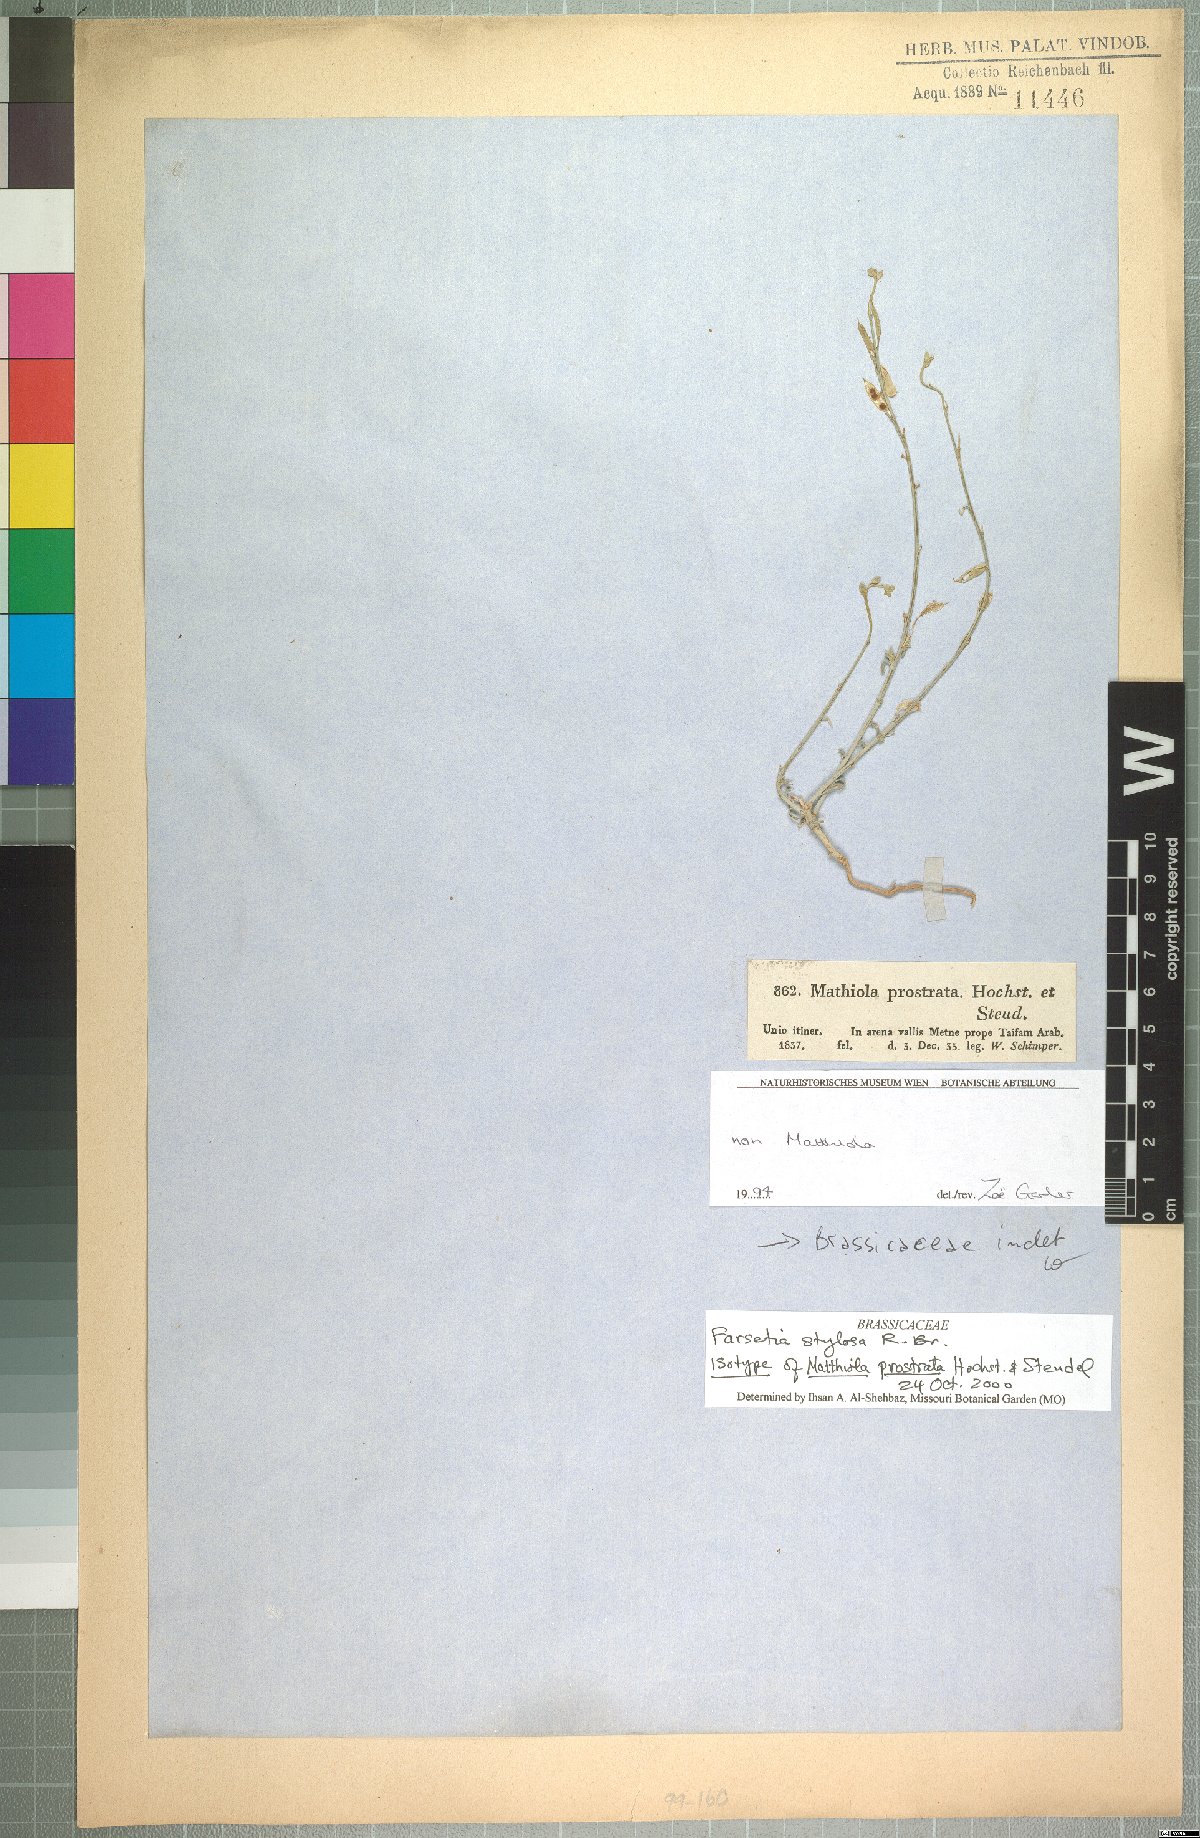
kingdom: Plantae
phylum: Tracheophyta
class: Magnoliopsida
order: Brassicales
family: Brassicaceae
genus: Farsetia
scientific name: Farsetia stylosa
